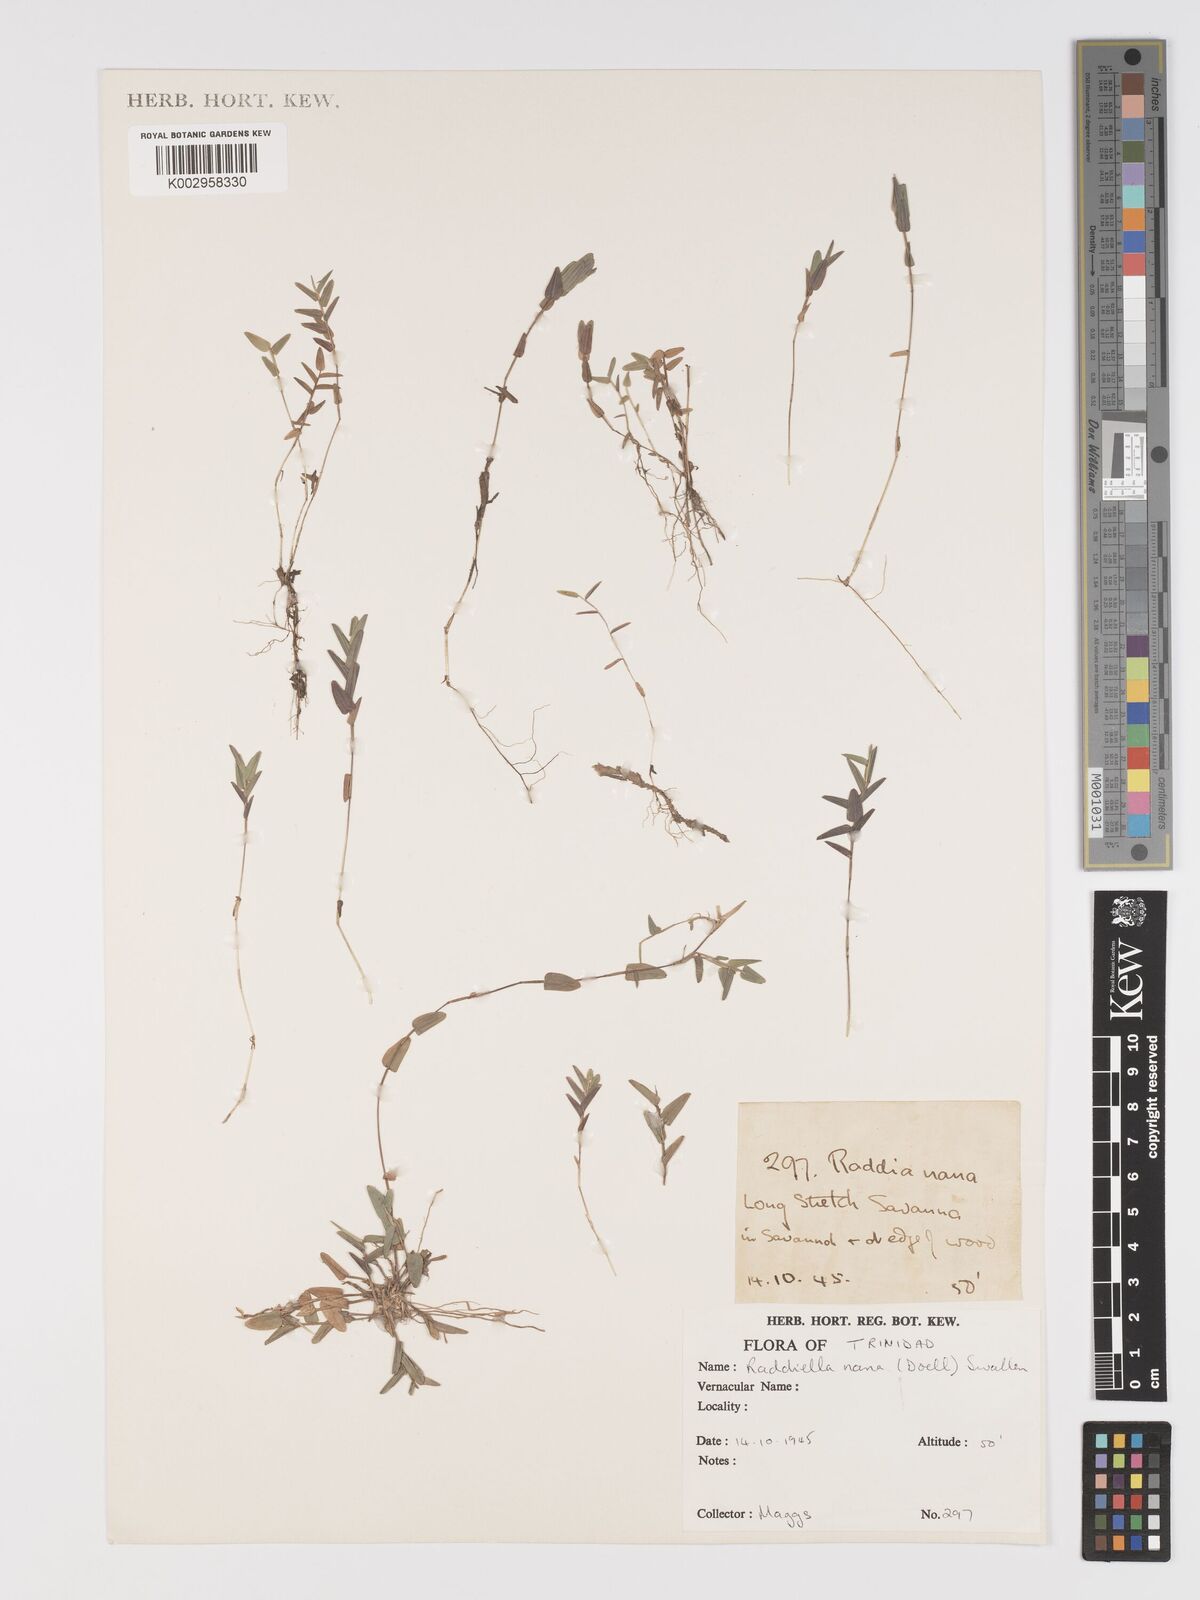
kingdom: Plantae
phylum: Tracheophyta
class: Liliopsida
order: Poales
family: Poaceae
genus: Raddiella
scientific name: Raddiella esenbeckii
